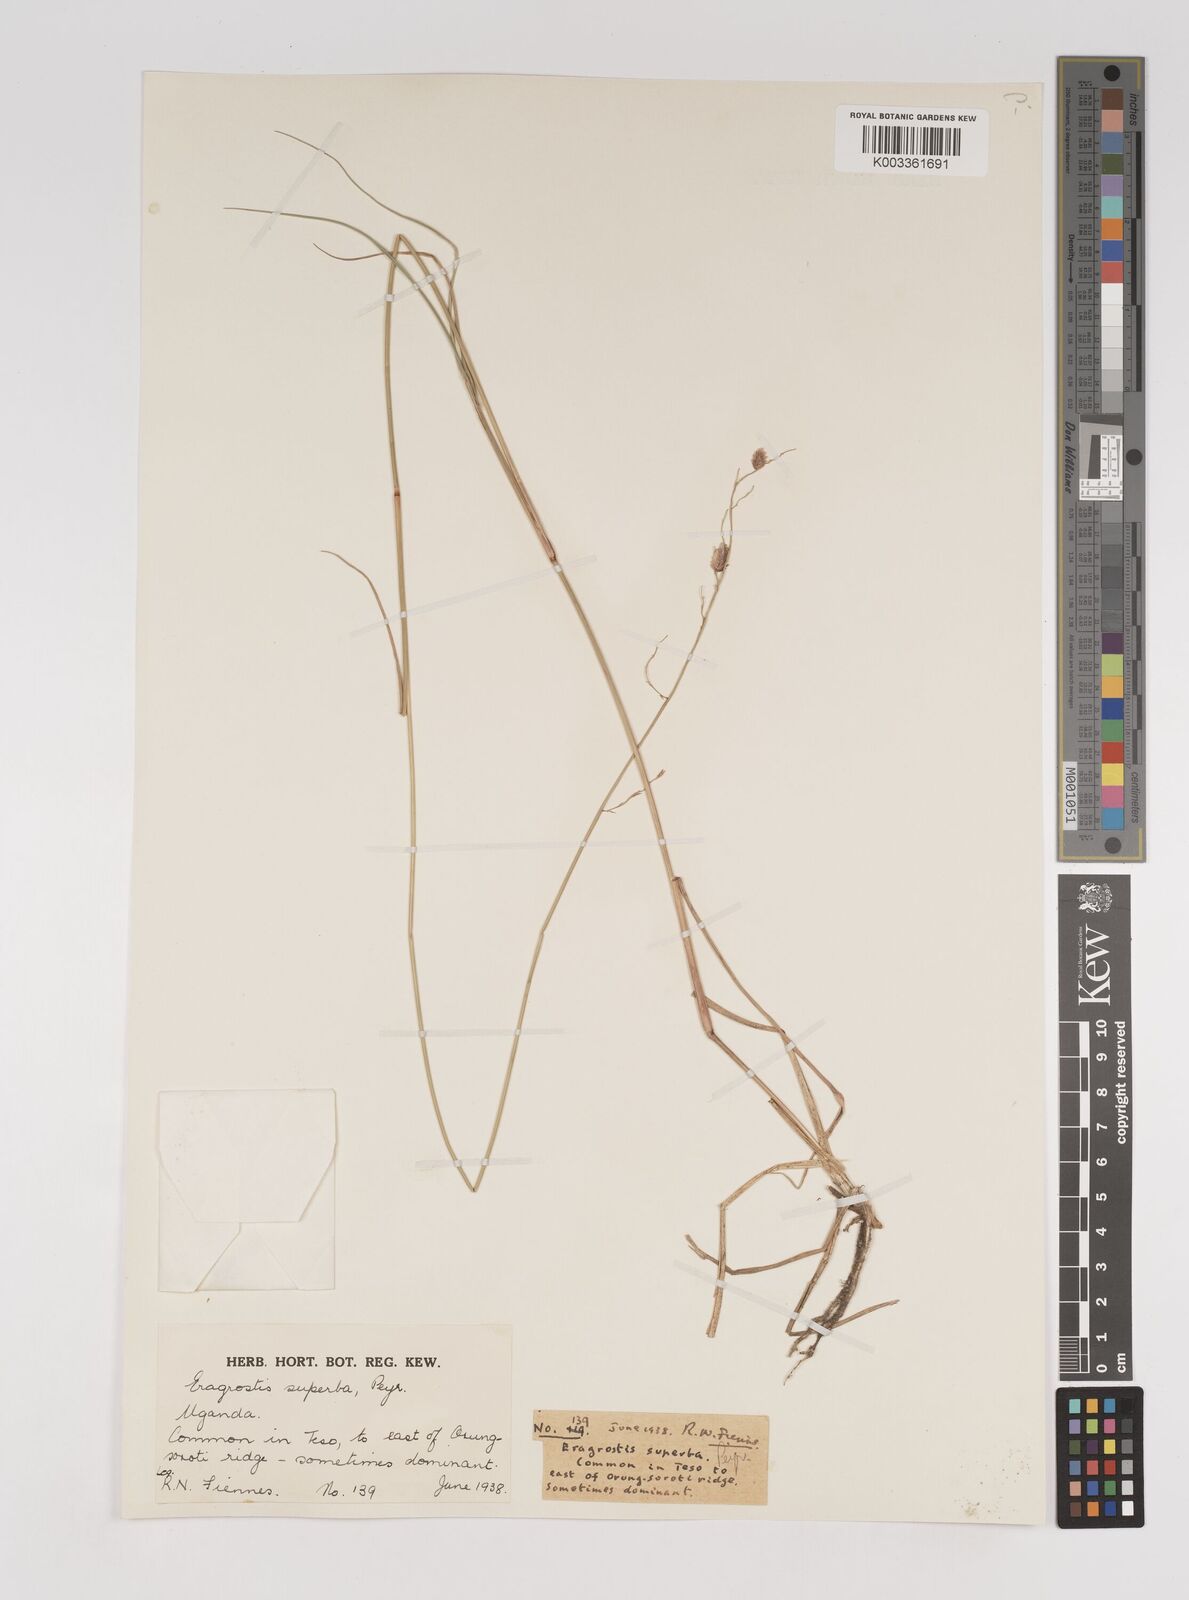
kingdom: Plantae
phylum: Tracheophyta
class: Liliopsida
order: Poales
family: Poaceae
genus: Eragrostis
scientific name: Eragrostis superba
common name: Wilman lovegrass
